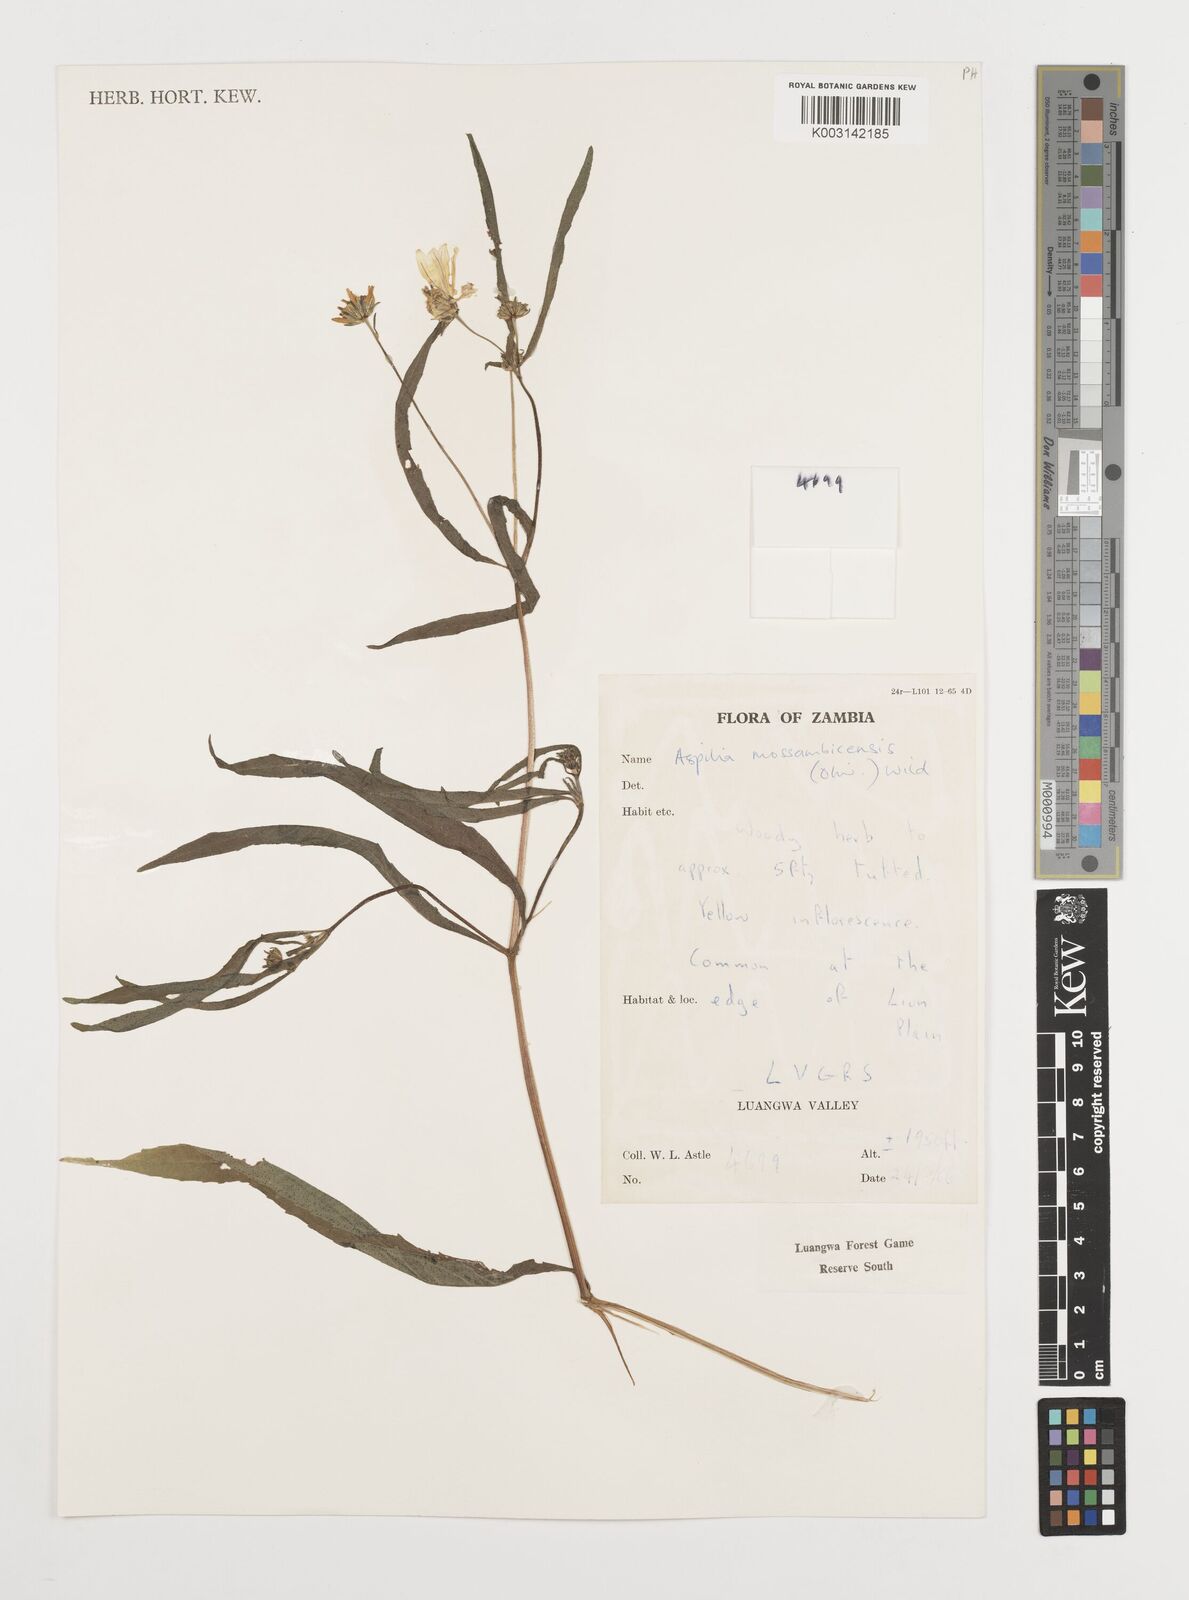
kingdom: Plantae
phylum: Tracheophyta
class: Magnoliopsida
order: Asterales
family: Asteraceae
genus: Aspilia
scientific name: Aspilia mossambicensis
